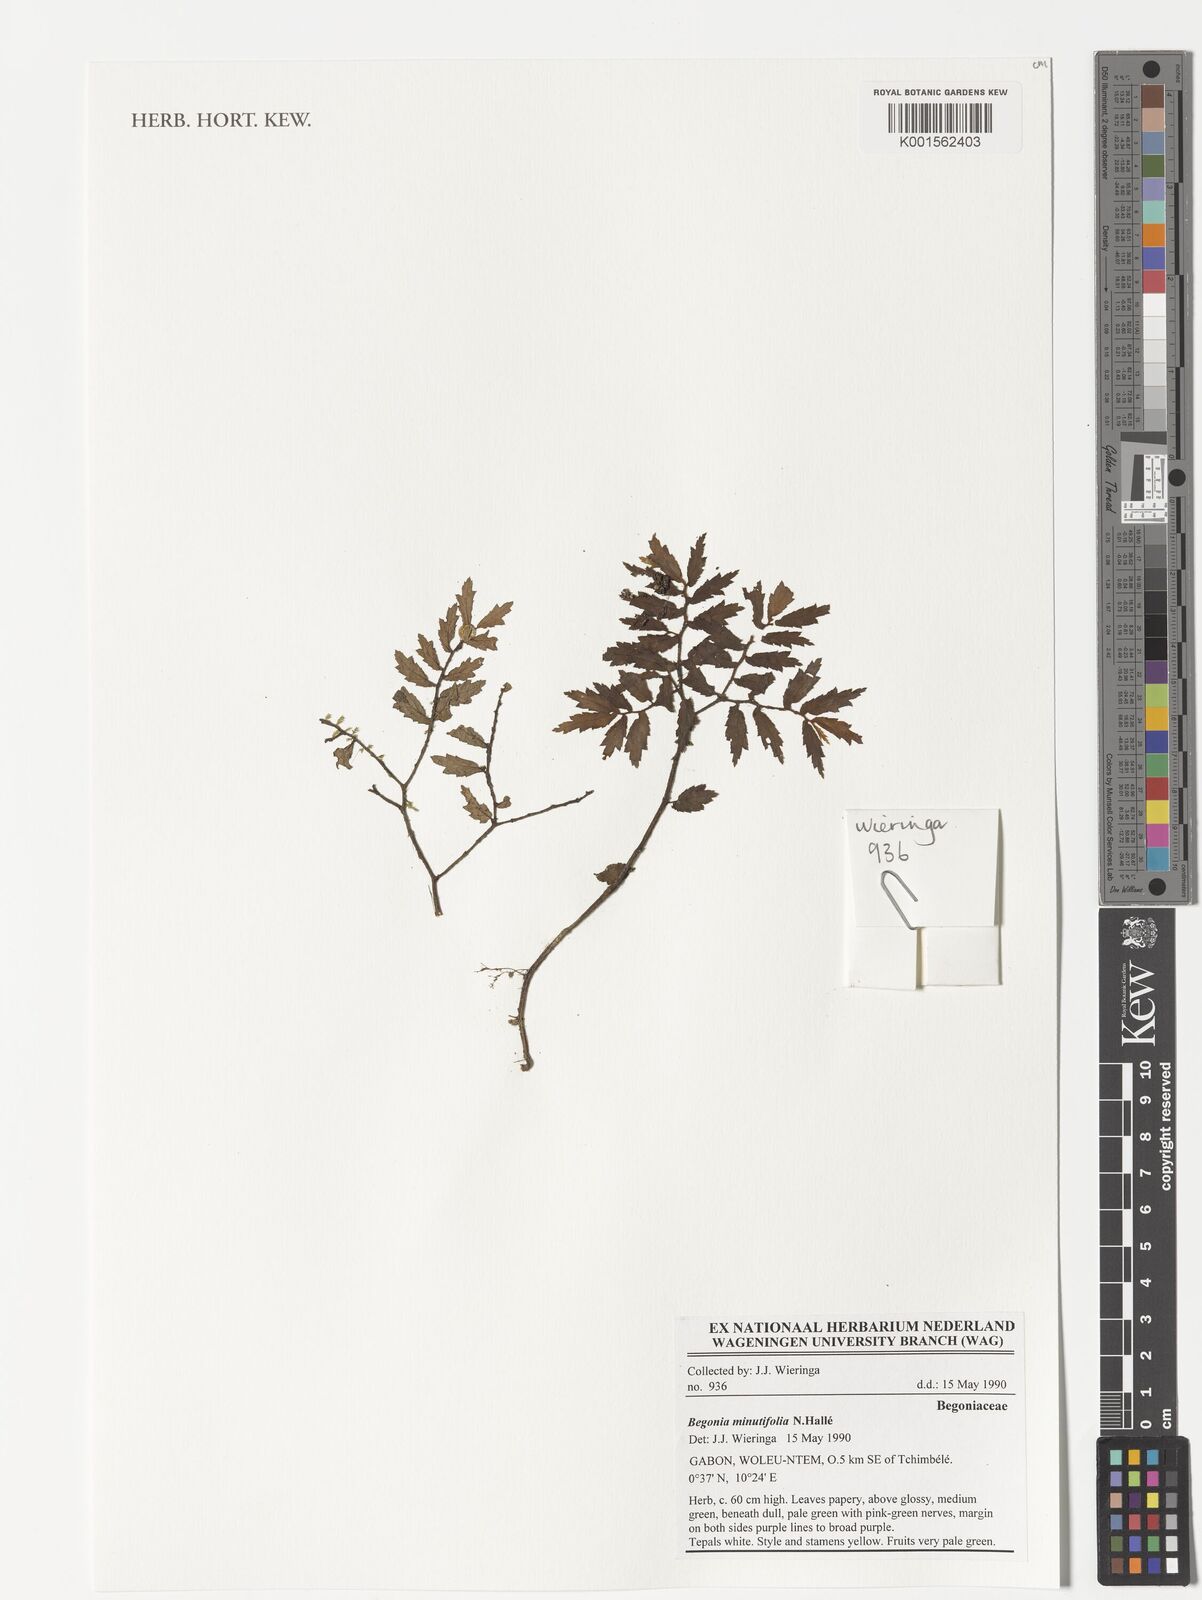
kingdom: Plantae
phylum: Tracheophyta
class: Magnoliopsida
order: Cucurbitales
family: Begoniaceae
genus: Begonia
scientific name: Begonia minutifolia
